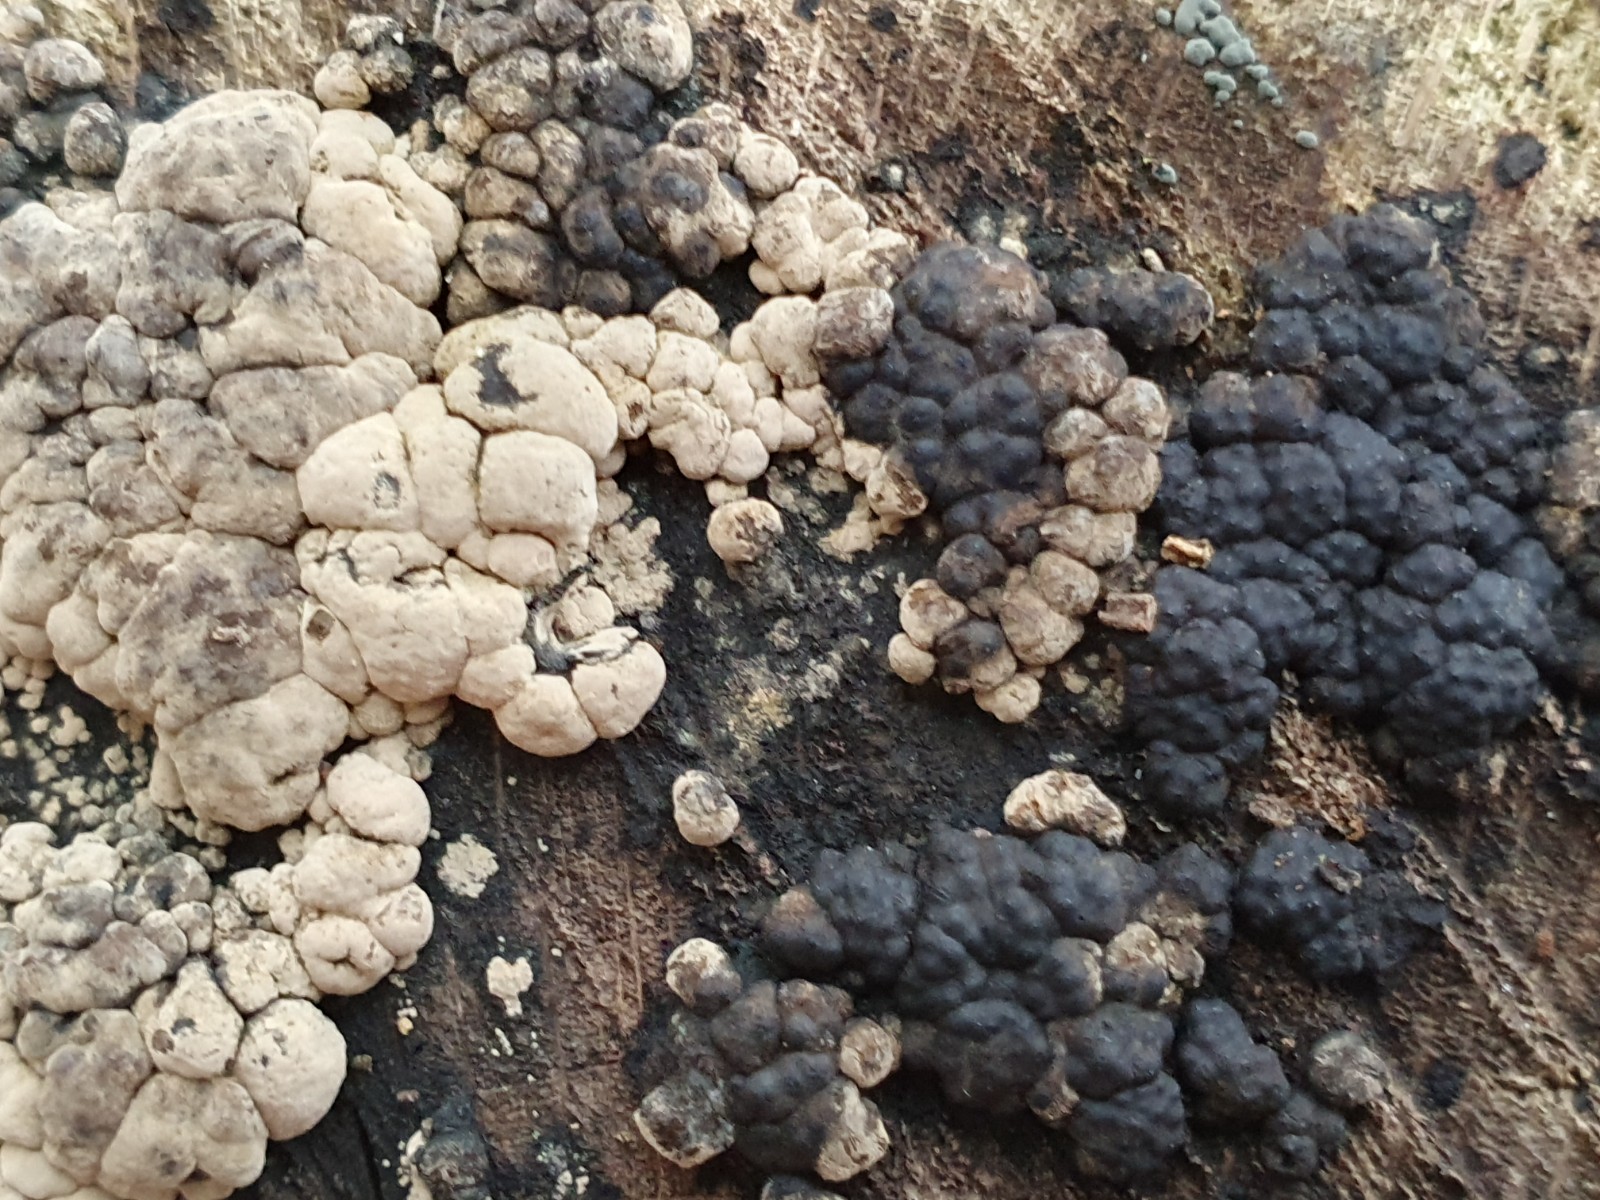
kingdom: Fungi
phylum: Ascomycota
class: Sordariomycetes
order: Xylariales
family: Hypoxylaceae
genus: Jackrogersella
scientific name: Jackrogersella cohaerens
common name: sammenflydende kulbær
